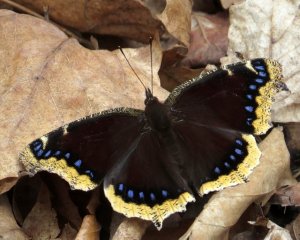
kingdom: Animalia
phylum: Arthropoda
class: Insecta
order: Lepidoptera
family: Nymphalidae
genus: Nymphalis
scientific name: Nymphalis antiopa
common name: Mourning Cloak
